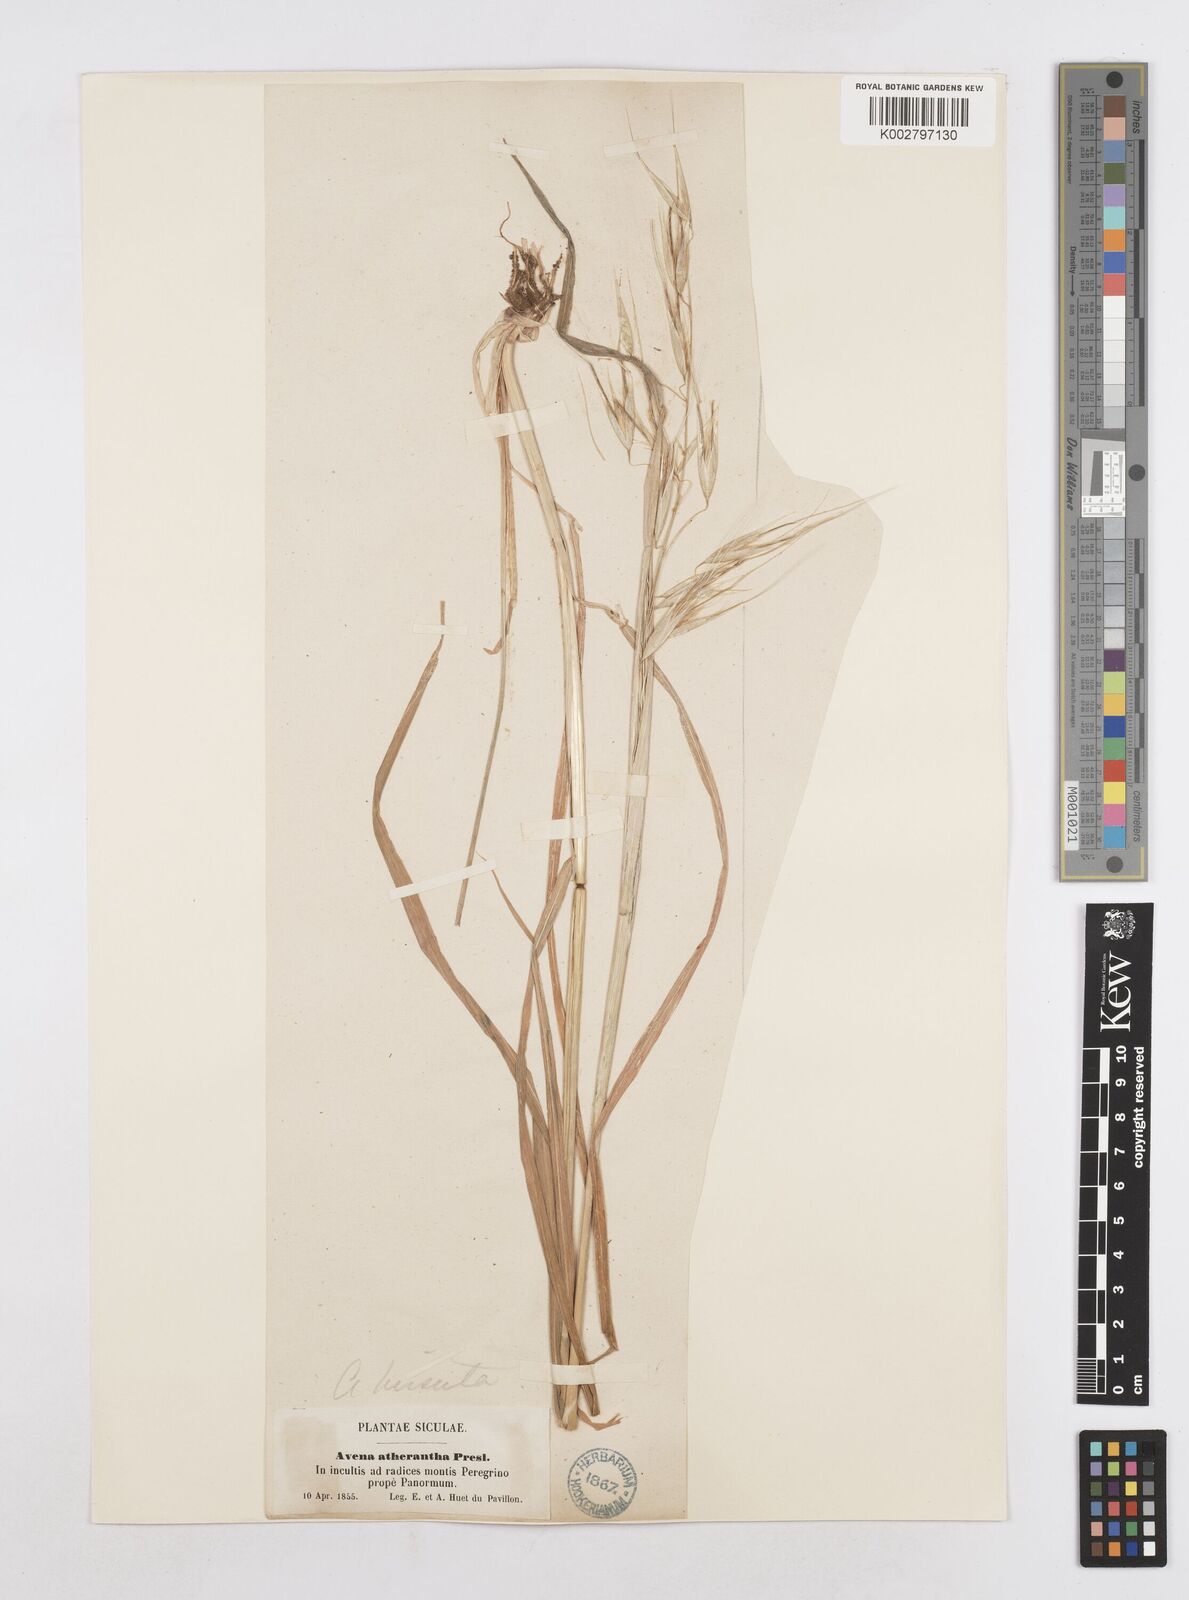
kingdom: Plantae
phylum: Tracheophyta
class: Liliopsida
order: Poales
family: Poaceae
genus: Avena
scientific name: Avena
